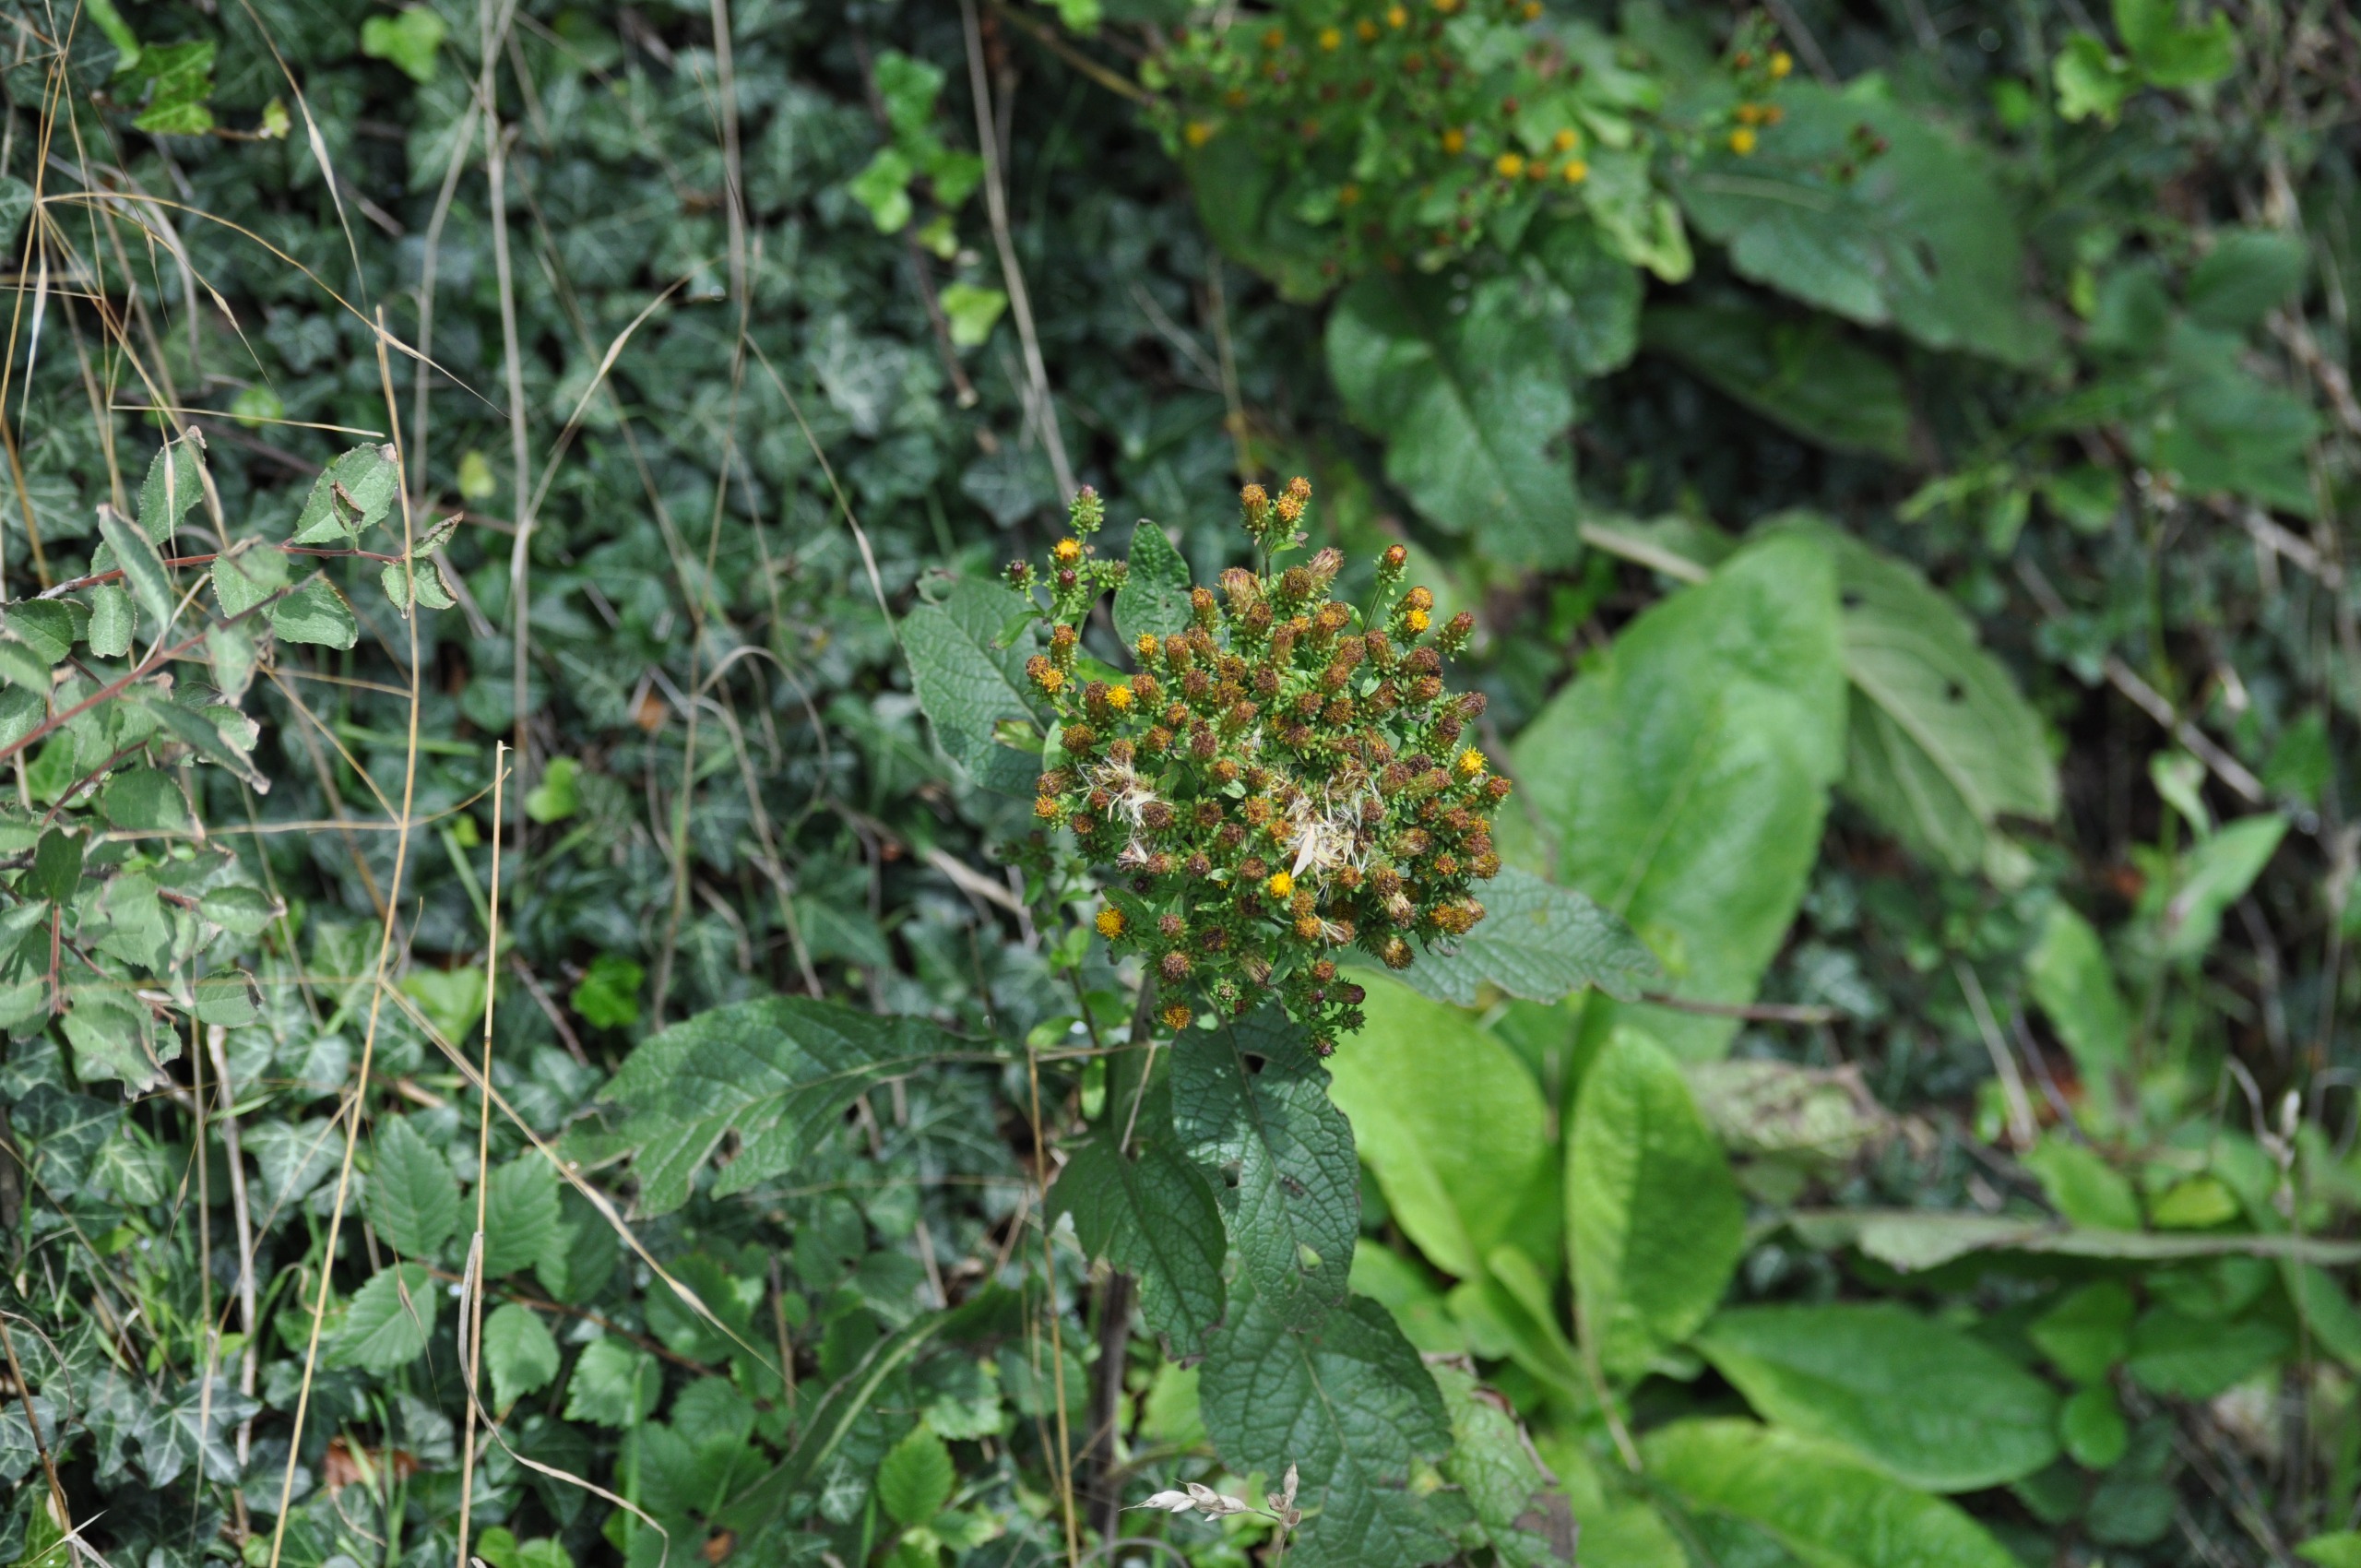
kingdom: Plantae
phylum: Tracheophyta
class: Magnoliopsida
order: Asterales
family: Asteraceae
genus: Pentanema
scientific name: Pentanema squarrosum
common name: Trekløft-alant
